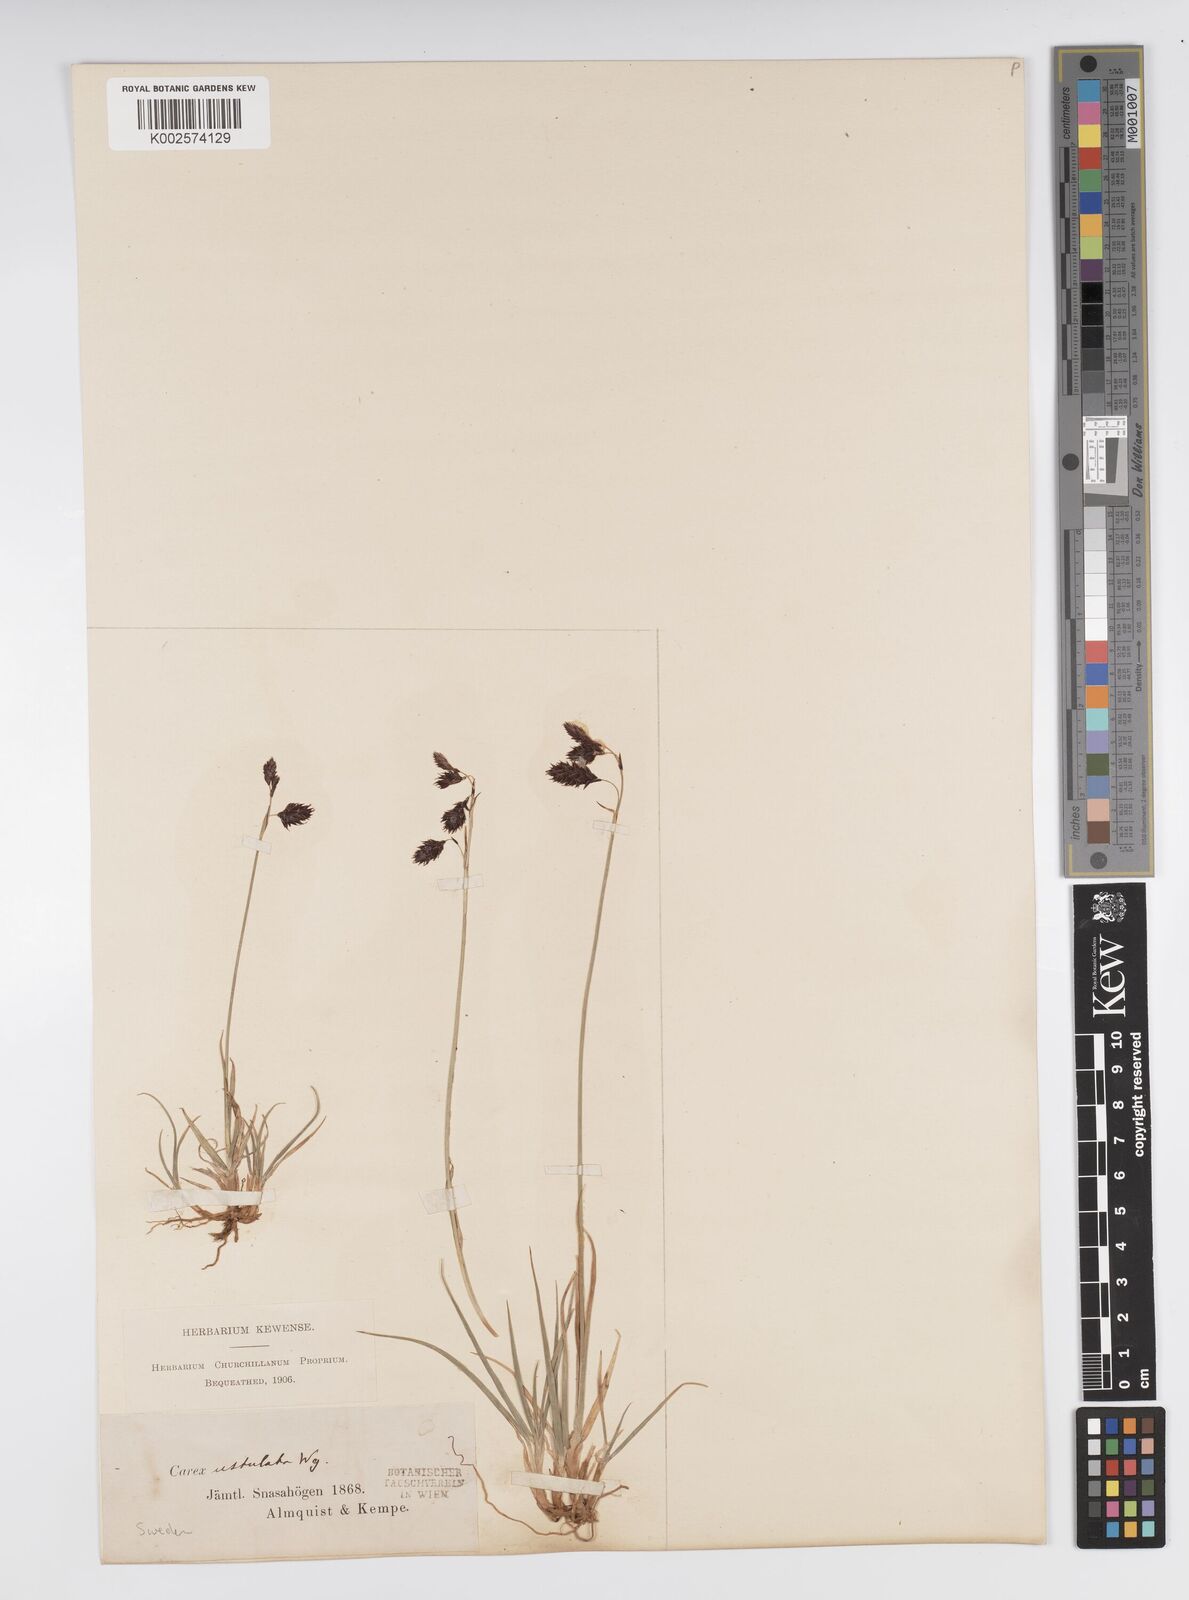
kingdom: Plantae
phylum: Tracheophyta
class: Liliopsida
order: Poales
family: Cyperaceae
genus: Carex
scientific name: Carex atrofusca
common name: Scorched alpine-sedge
